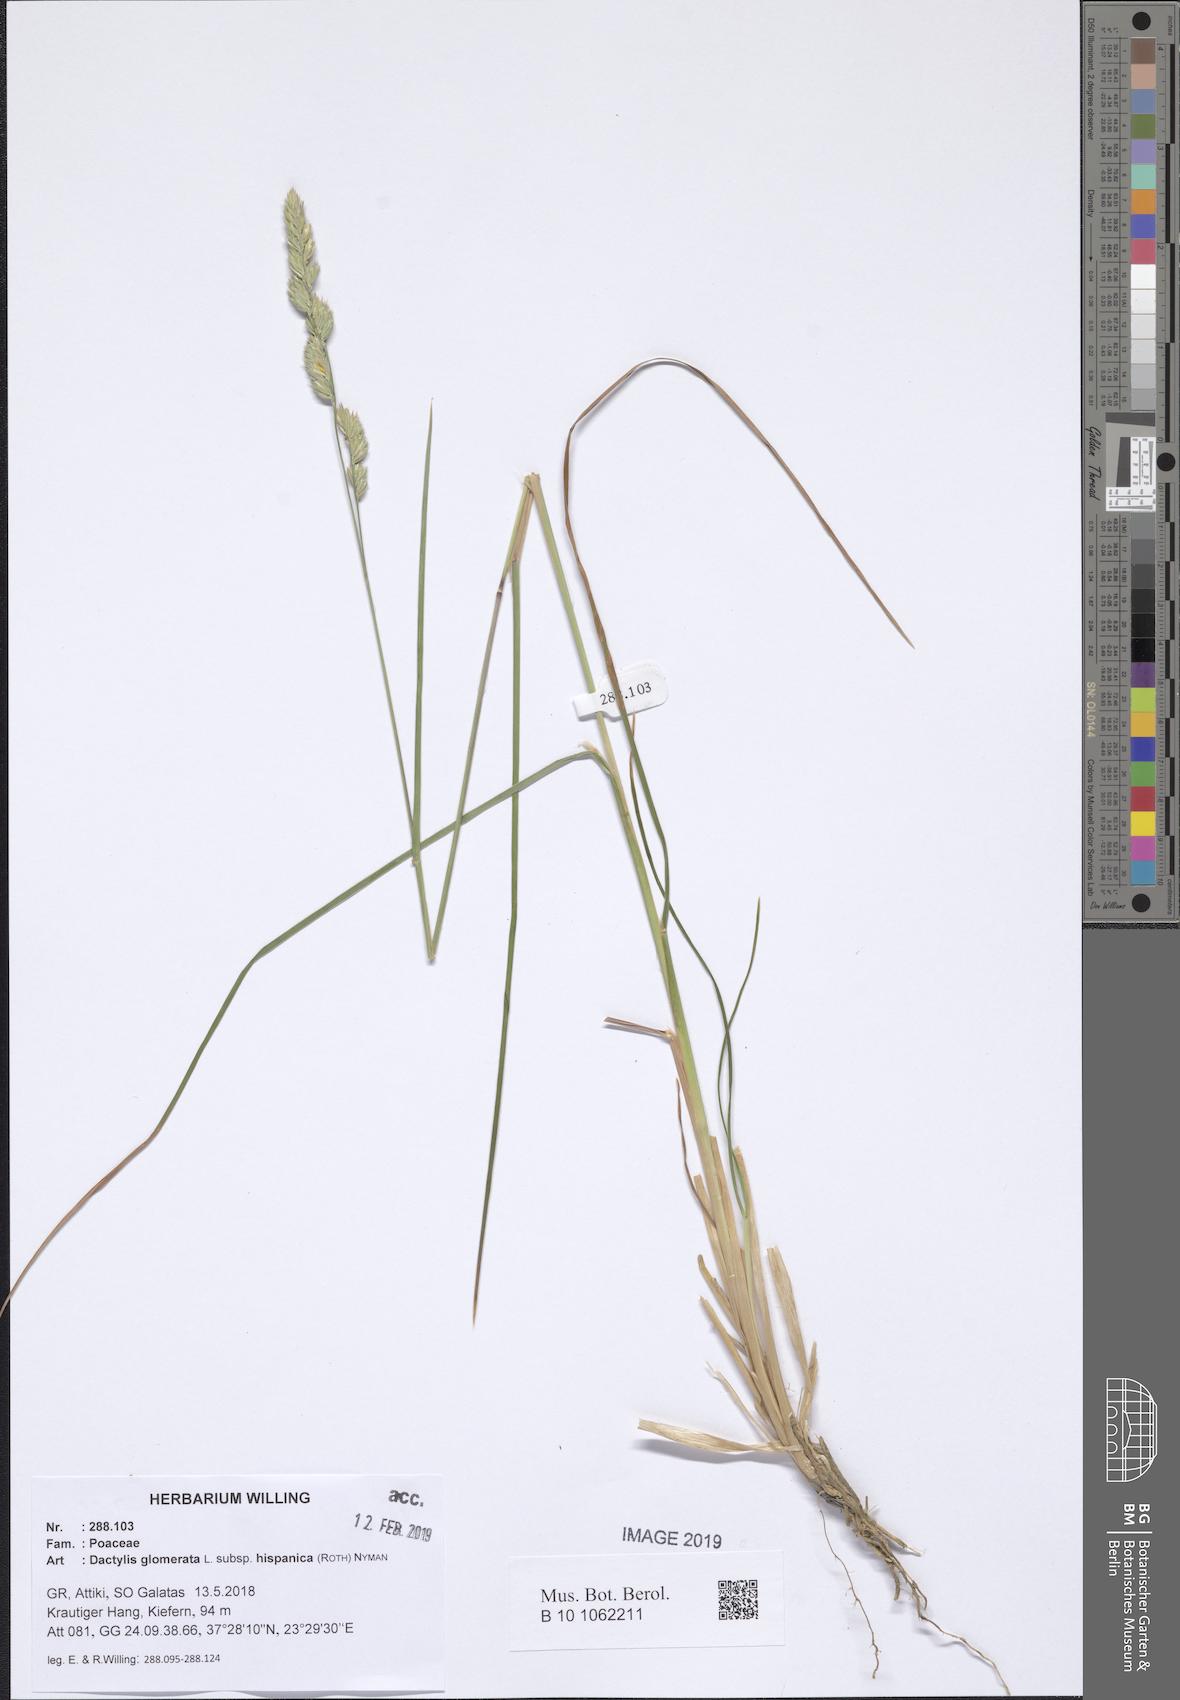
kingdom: Plantae
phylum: Tracheophyta
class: Liliopsida
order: Poales
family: Poaceae
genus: Dactylis
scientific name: Dactylis glomerata
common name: Orchardgrass
